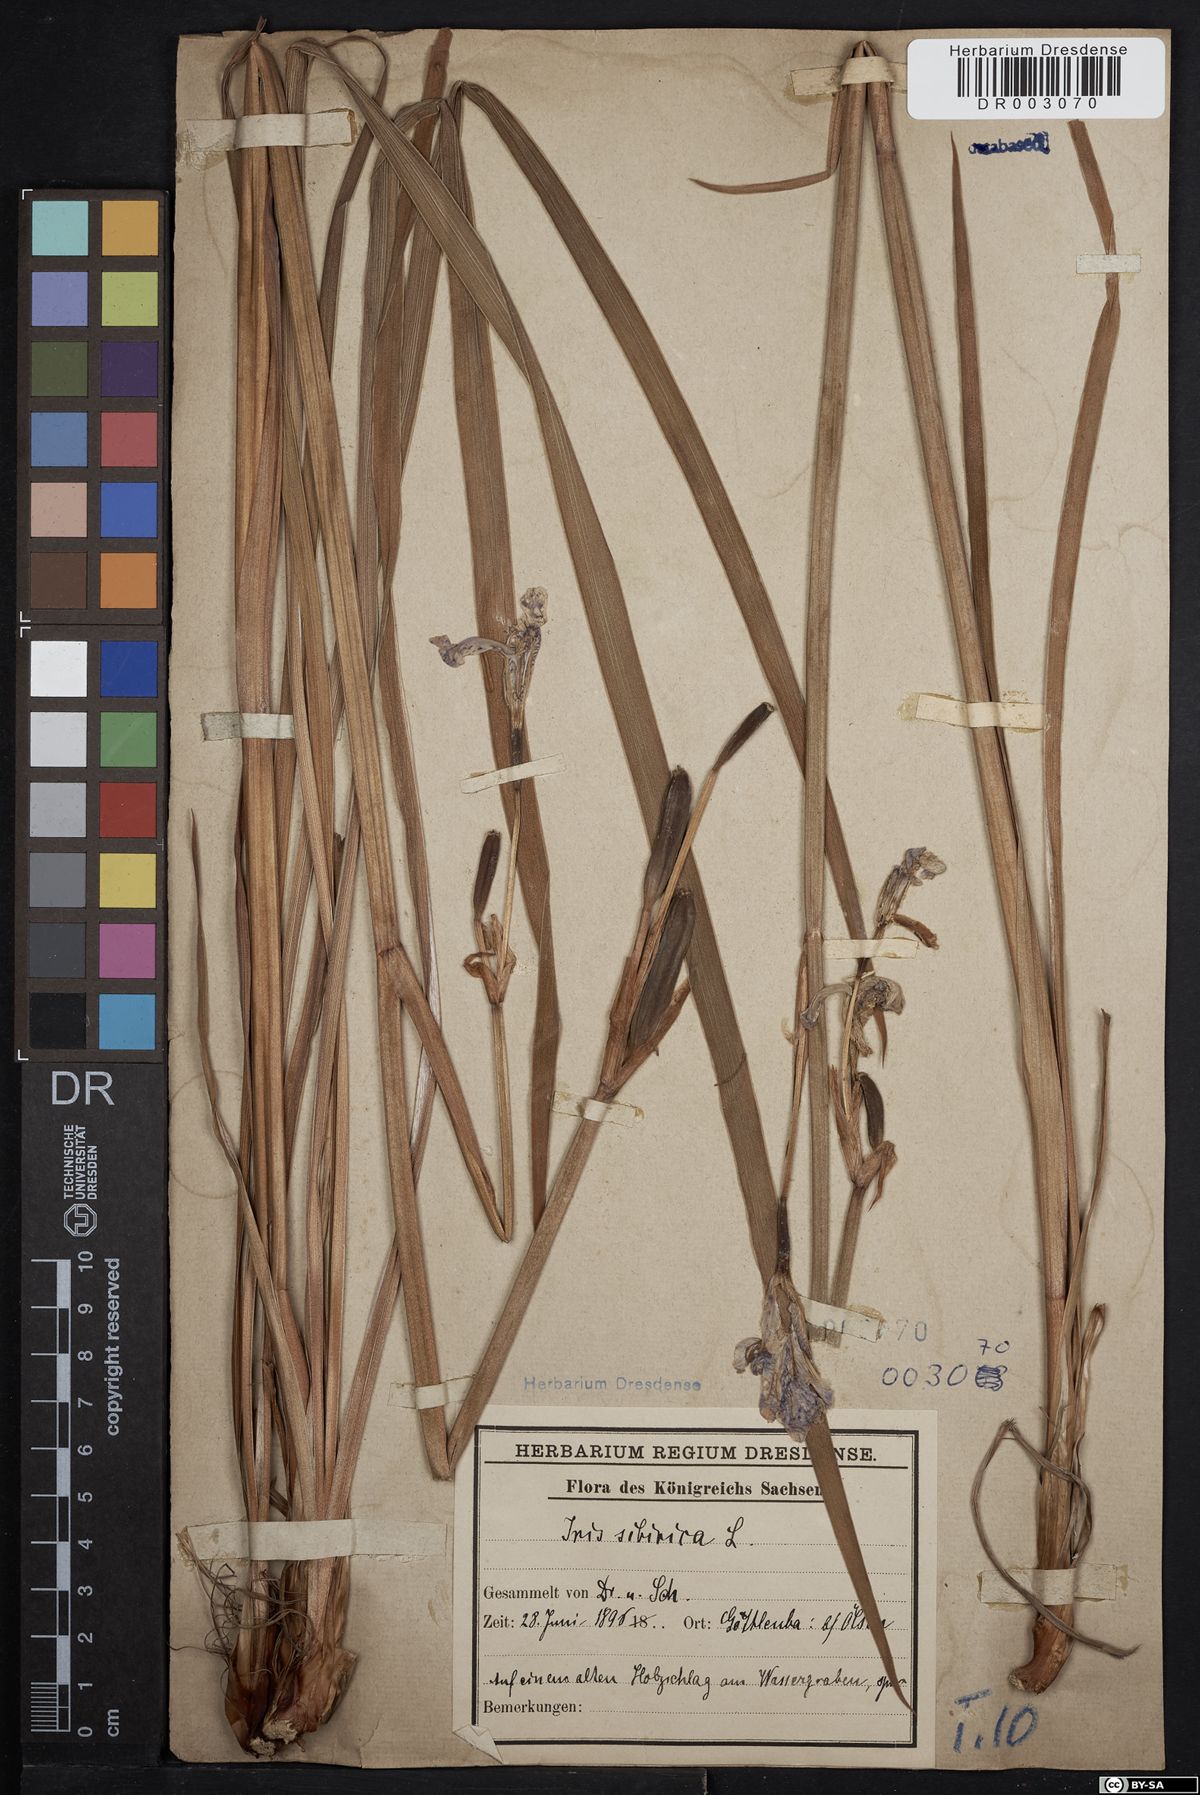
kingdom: Plantae
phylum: Tracheophyta
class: Liliopsida
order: Asparagales
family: Iridaceae
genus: Iris
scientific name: Iris sibirica
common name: Siberian iris
